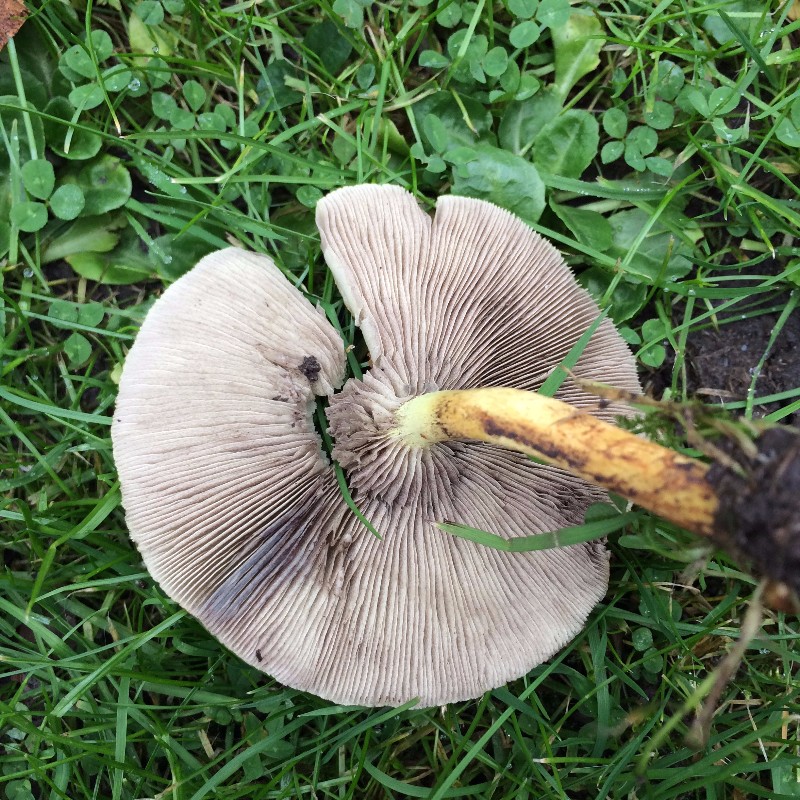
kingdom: Fungi
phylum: Basidiomycota
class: Agaricomycetes
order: Agaricales
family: Strophariaceae
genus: Hypholoma
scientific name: Hypholoma fasciculare
